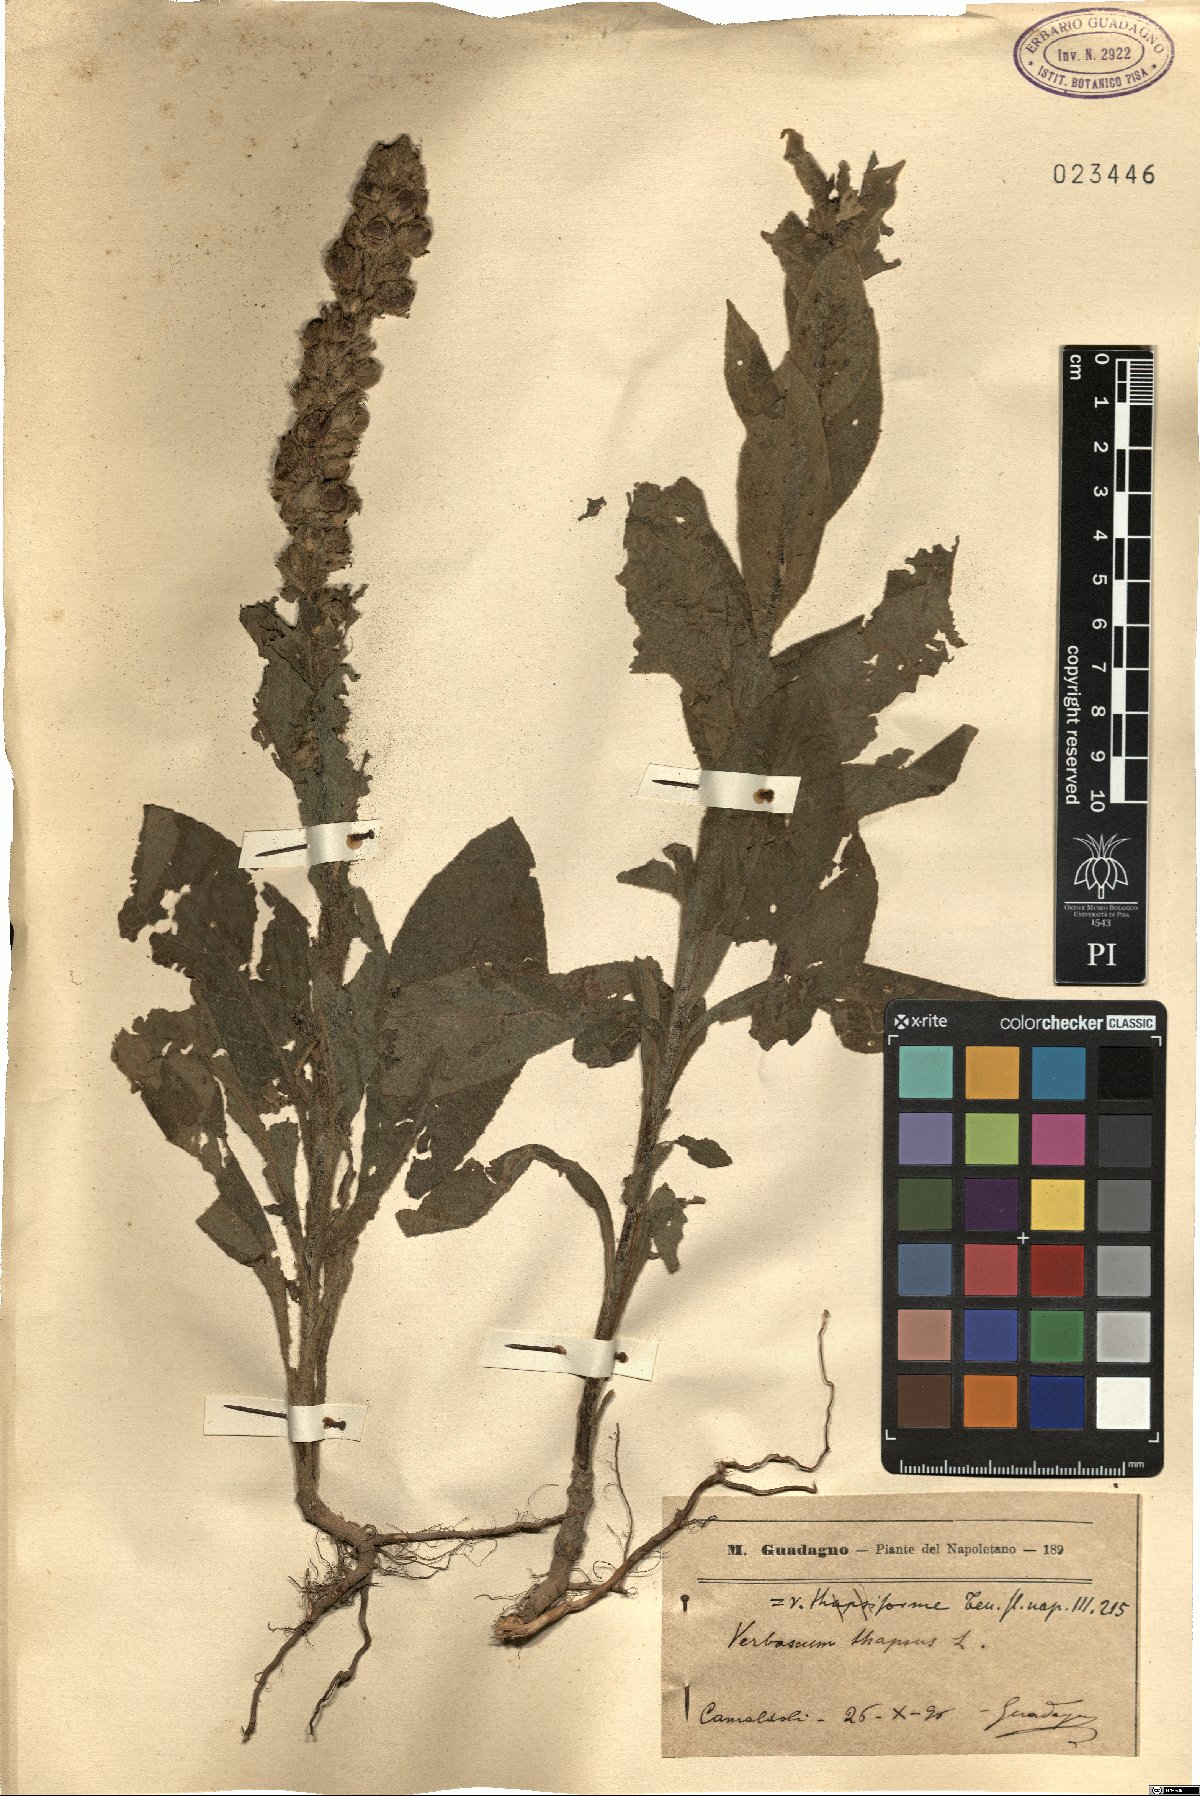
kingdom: Plantae
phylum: Tracheophyta
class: Magnoliopsida
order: Lamiales
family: Scrophulariaceae
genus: Verbascum
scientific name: Verbascum thapsus
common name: Common mullein
